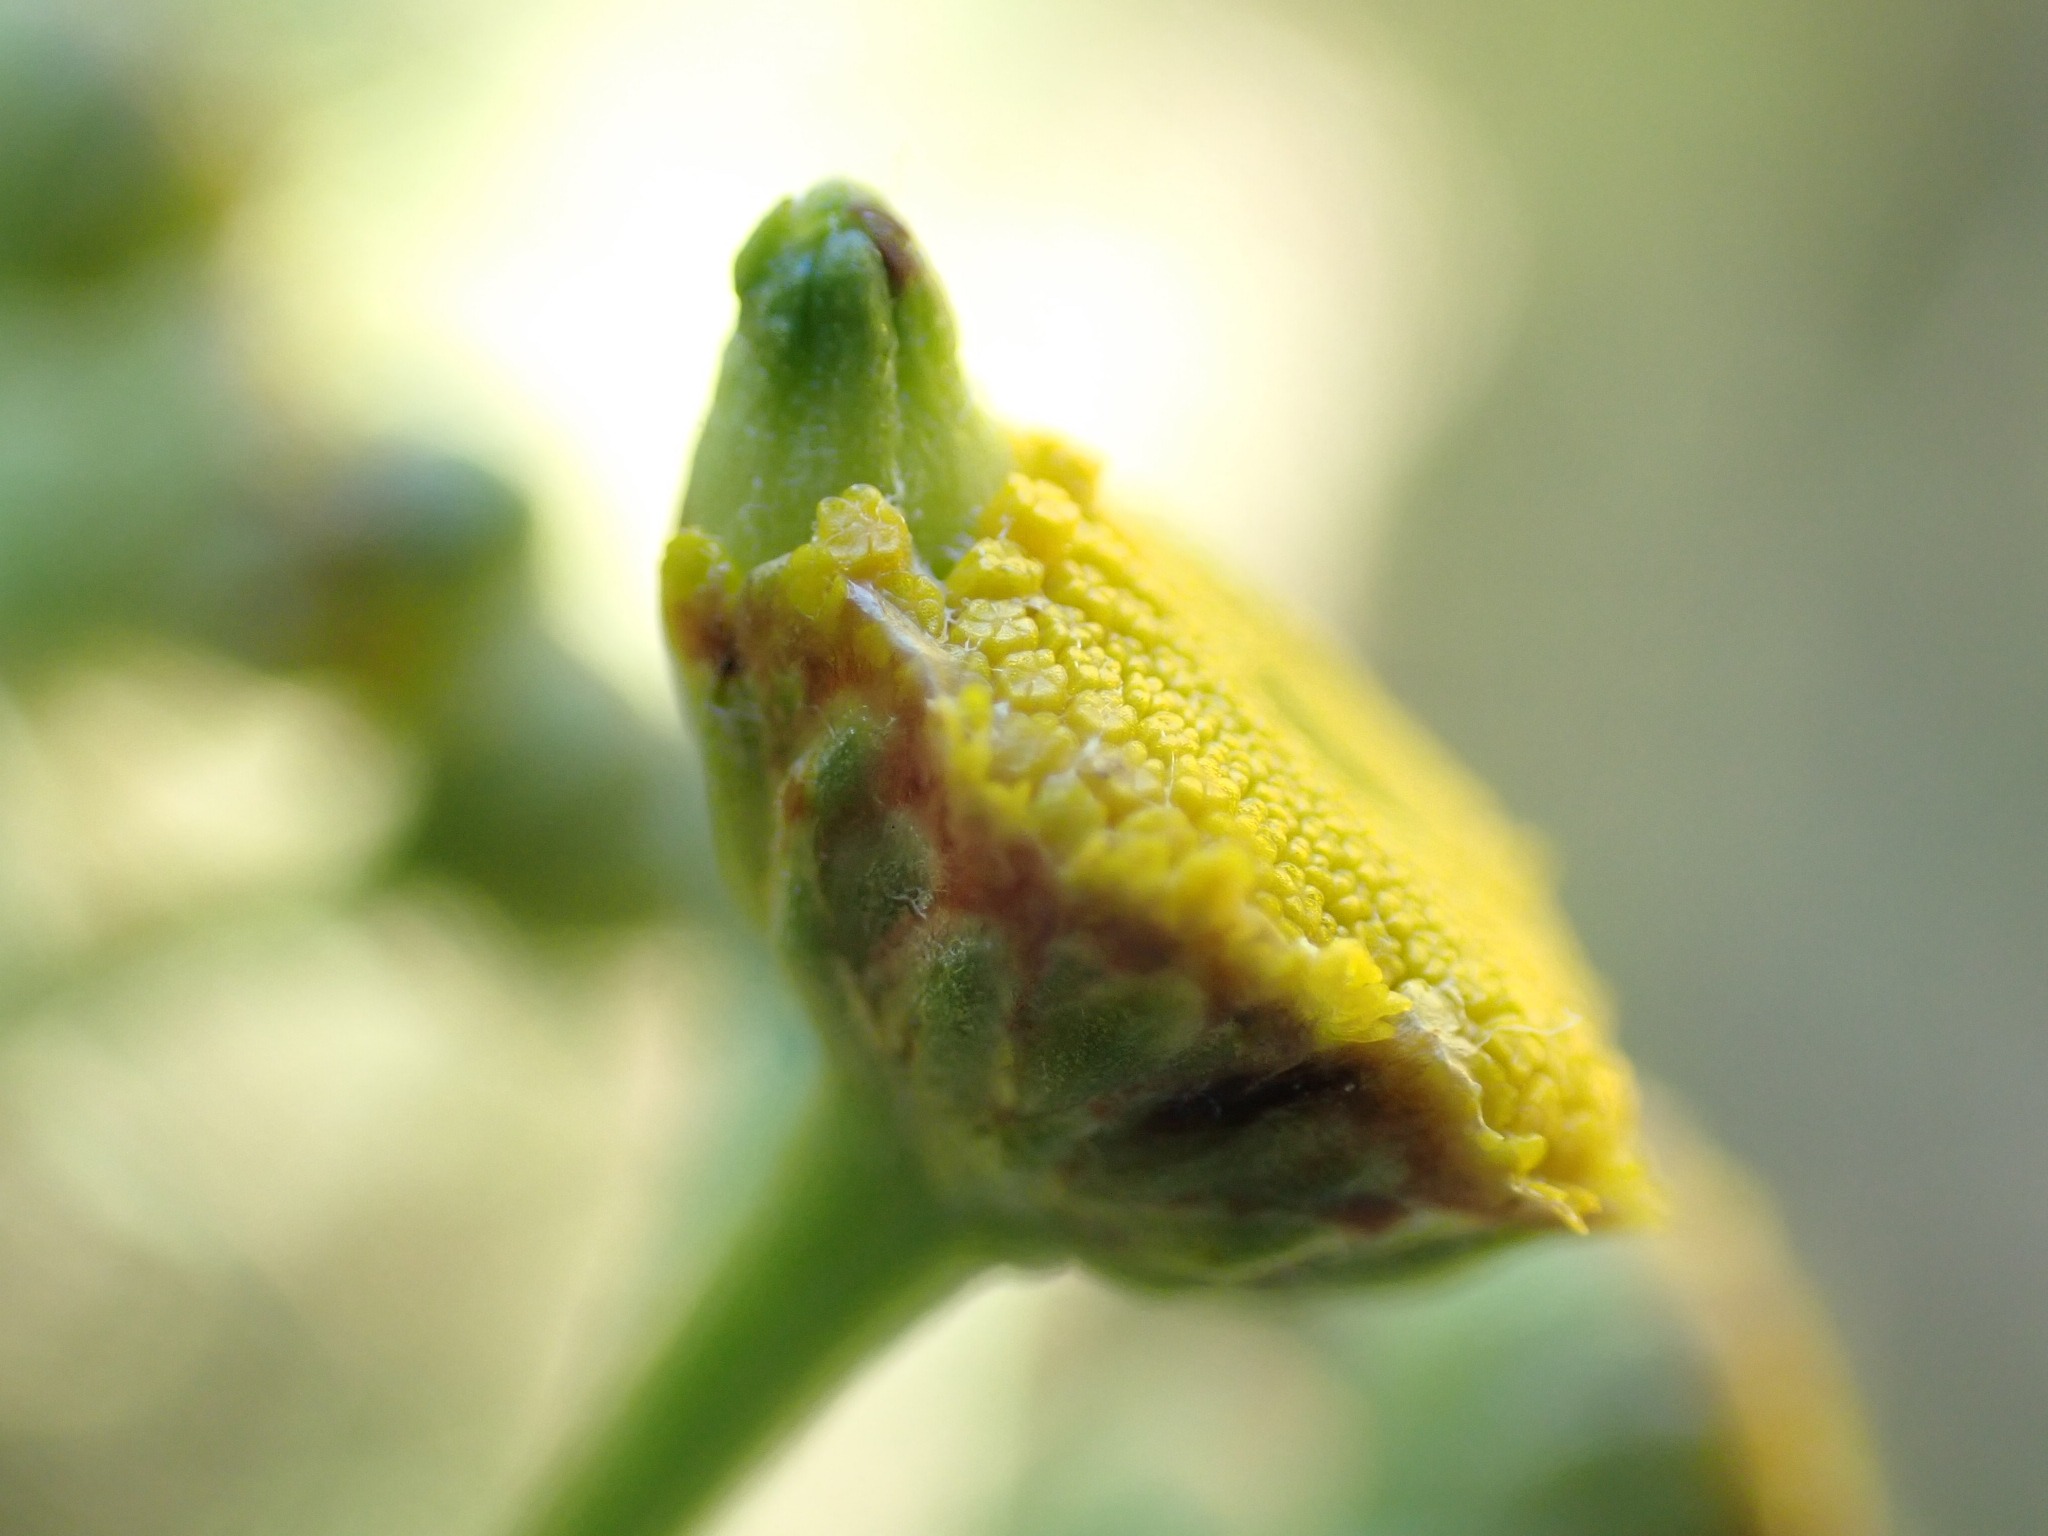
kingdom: Animalia
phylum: Arthropoda
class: Insecta
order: Diptera
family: Cecidomyiidae
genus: Rhopalomyia
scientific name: Rhopalomyia tanaceticolus
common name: Rejnfangalmyg
